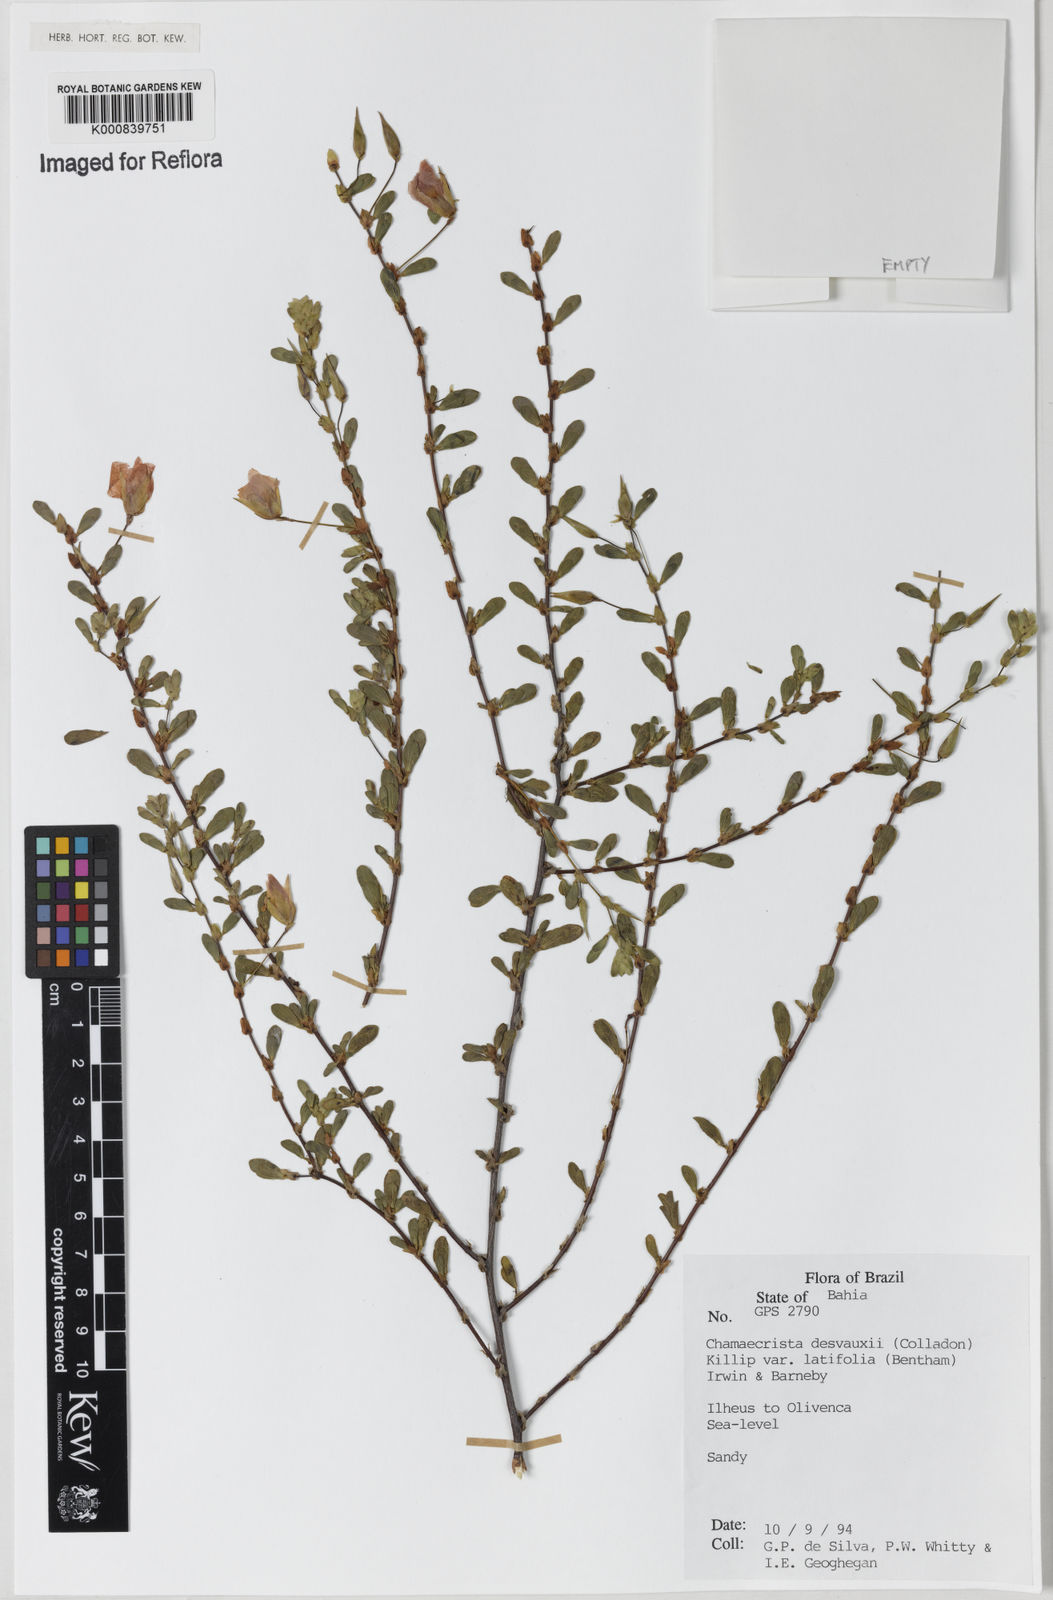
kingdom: Plantae
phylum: Tracheophyta
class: Magnoliopsida
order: Fabales
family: Fabaceae
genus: Chamaecrista
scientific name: Chamaecrista desvauxii
